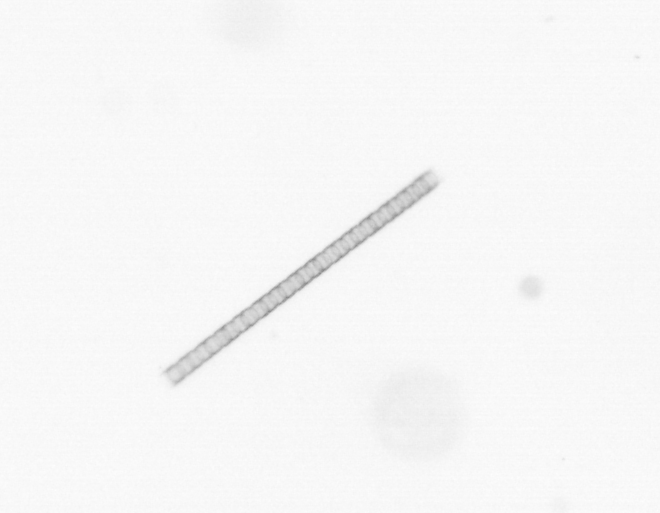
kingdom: Chromista
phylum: Ochrophyta
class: Bacillariophyceae
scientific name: Bacillariophyceae
